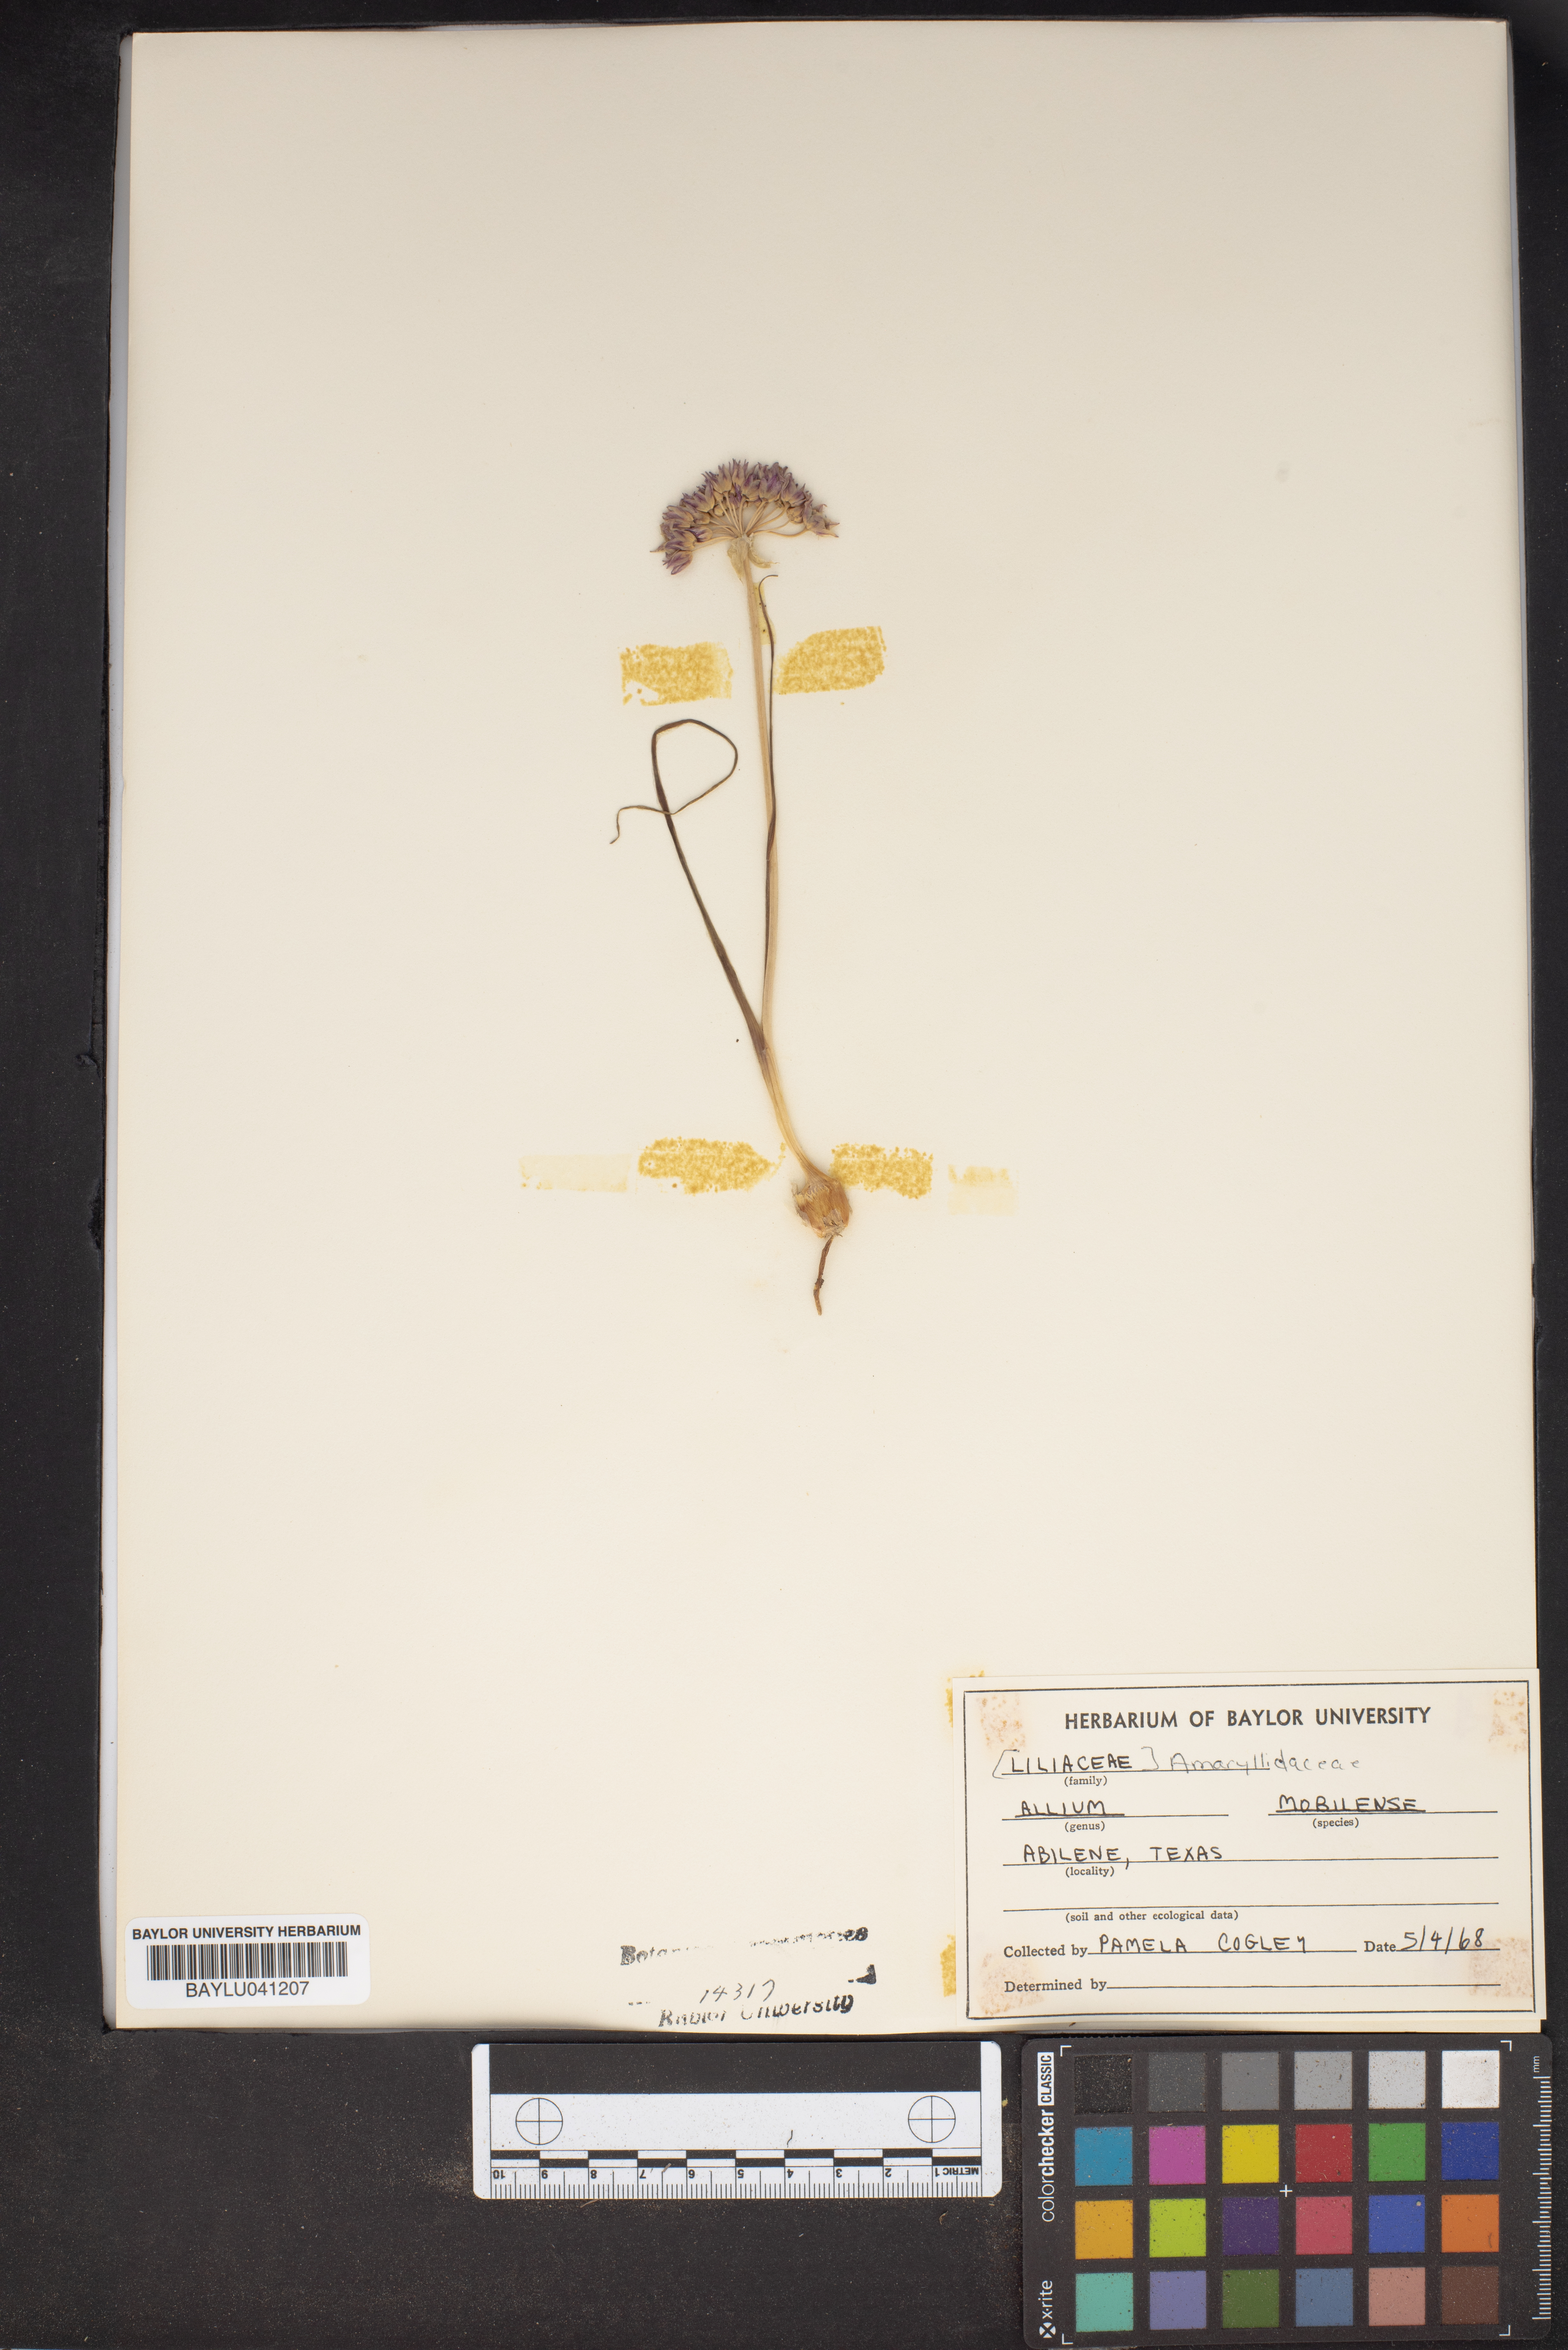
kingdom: Plantae
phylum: Tracheophyta
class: Liliopsida
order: Asparagales
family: Amaryllidaceae
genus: Allium
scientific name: Allium canadense
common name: Meadow garlic
